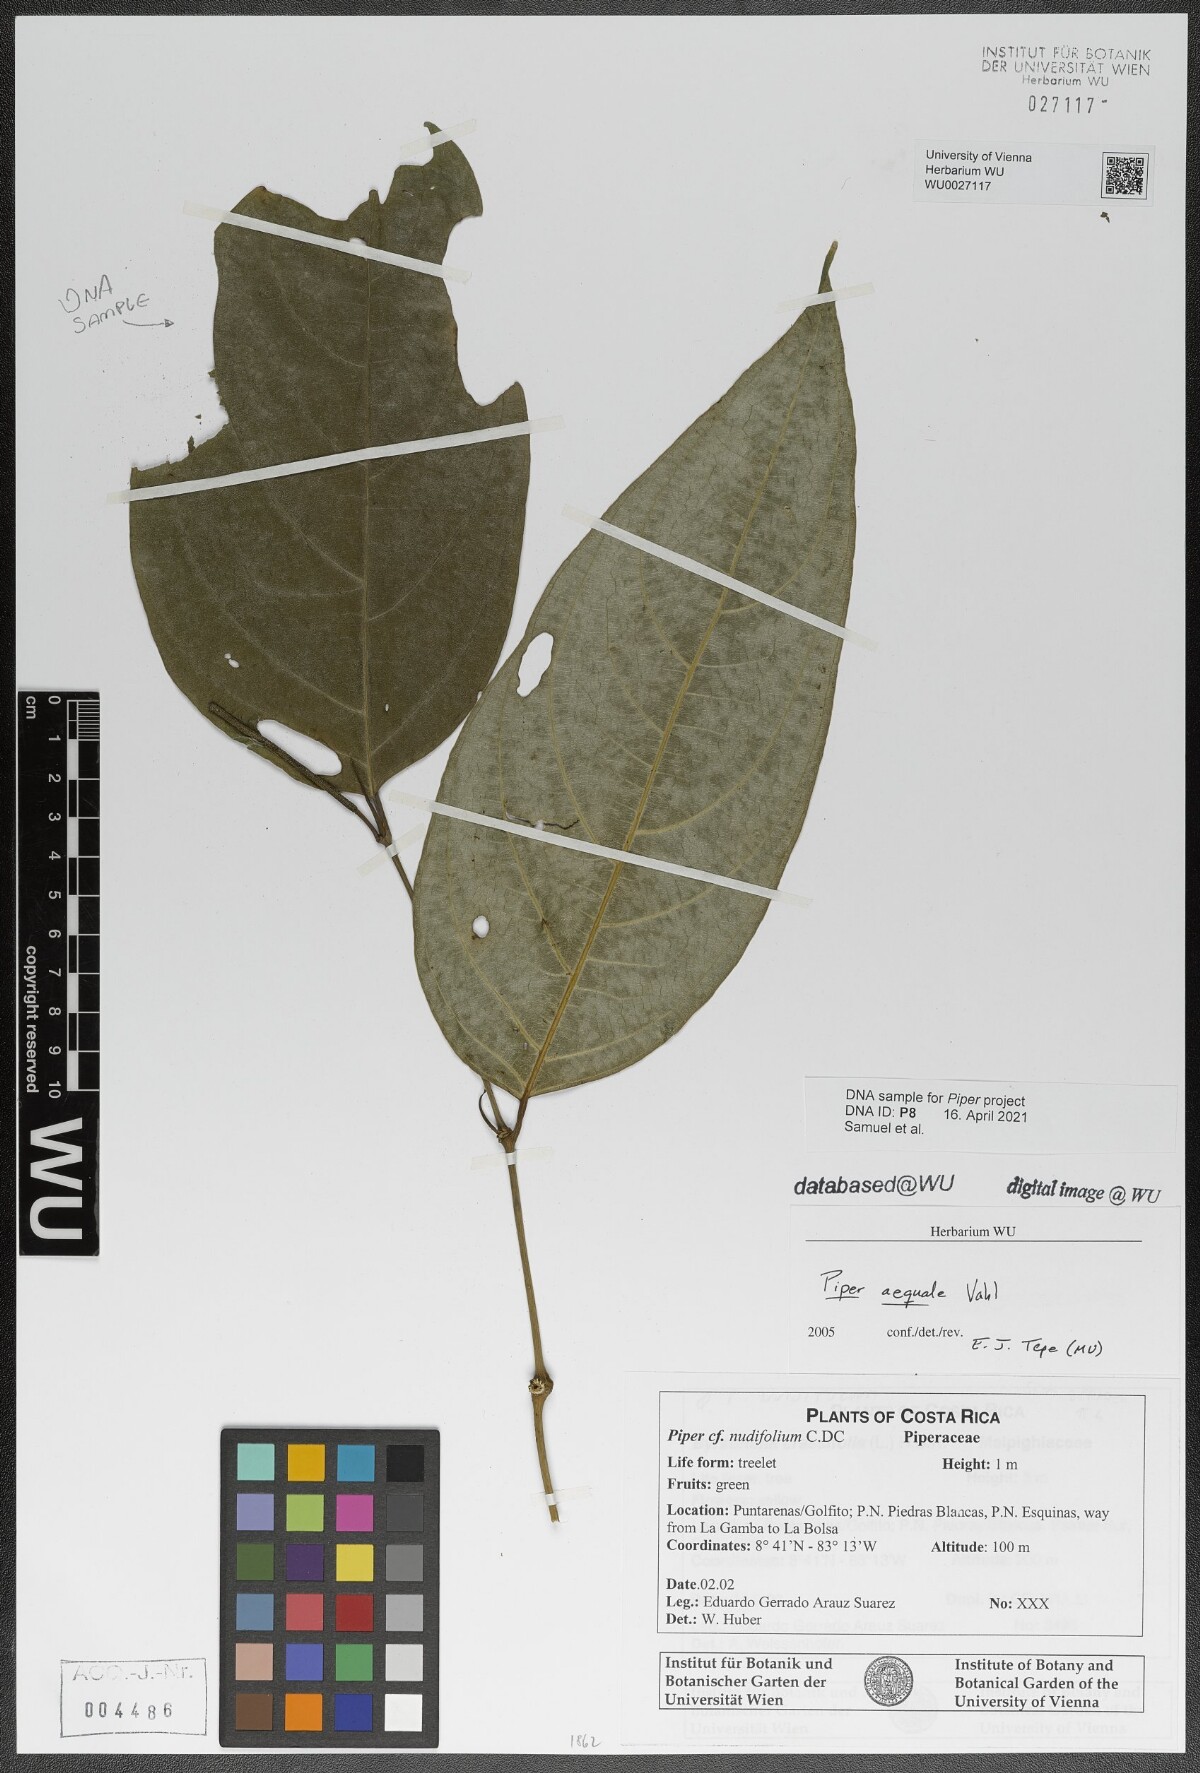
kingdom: Plantae
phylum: Tracheophyta
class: Magnoliopsida
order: Piperales
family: Piperaceae
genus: Piper
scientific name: Piper aequale
